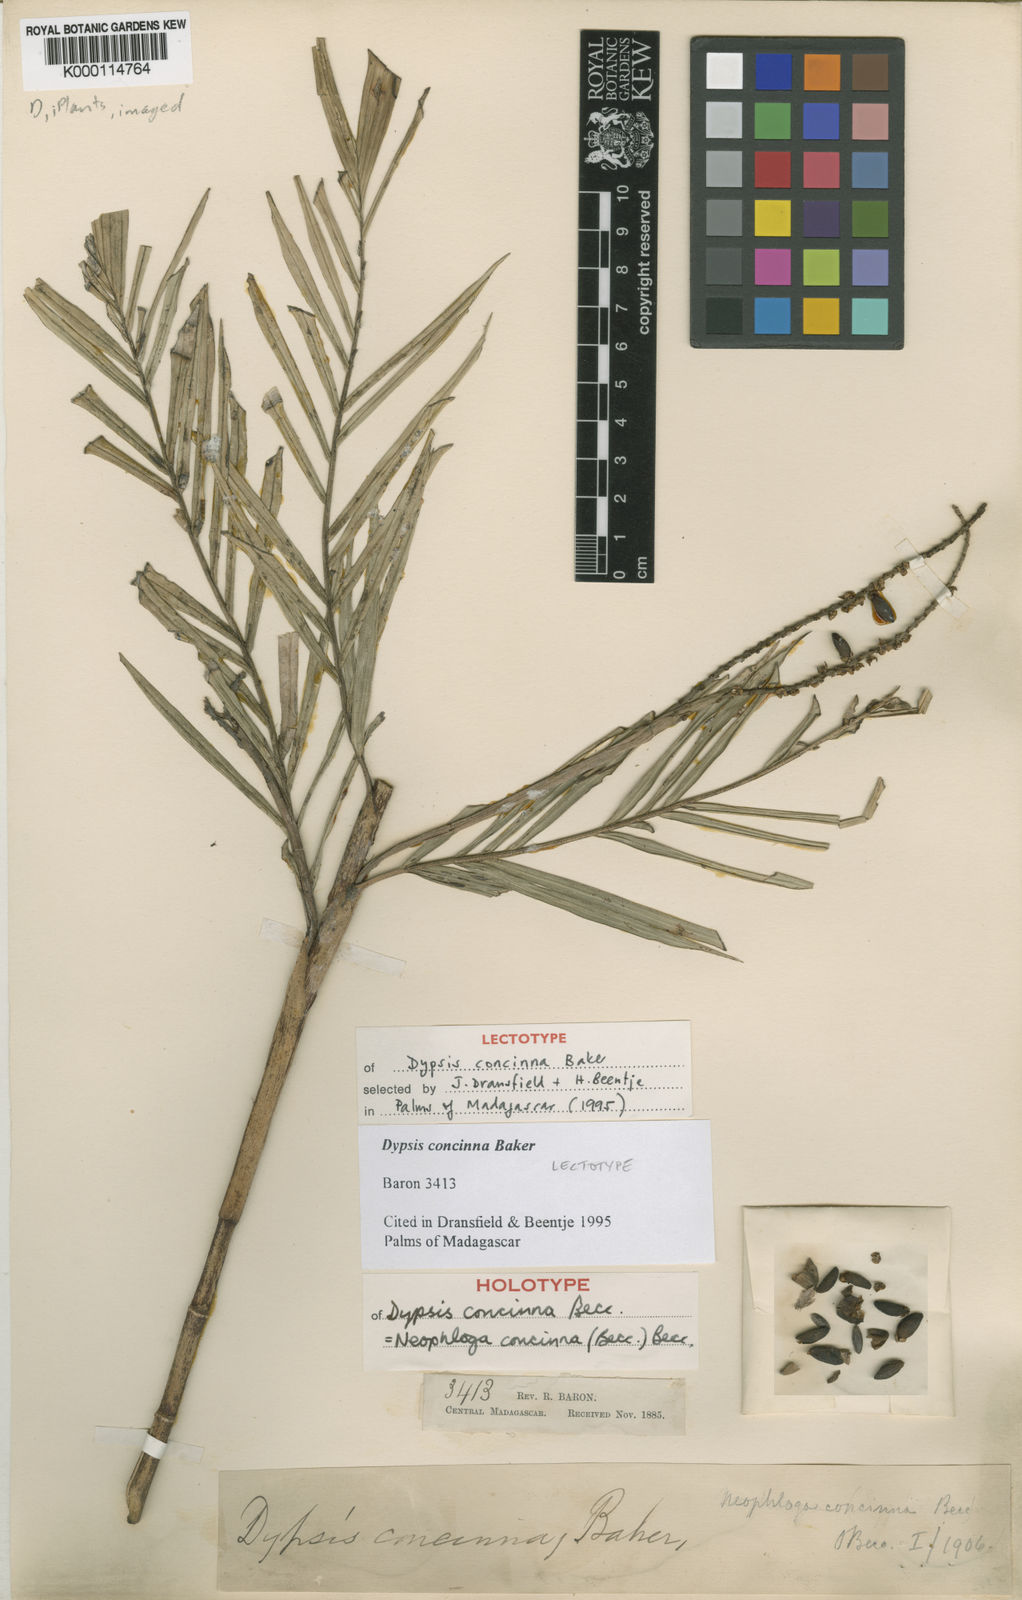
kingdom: Plantae
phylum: Tracheophyta
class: Liliopsida
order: Arecales
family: Arecaceae
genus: Dypsis
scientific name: Dypsis concinna
